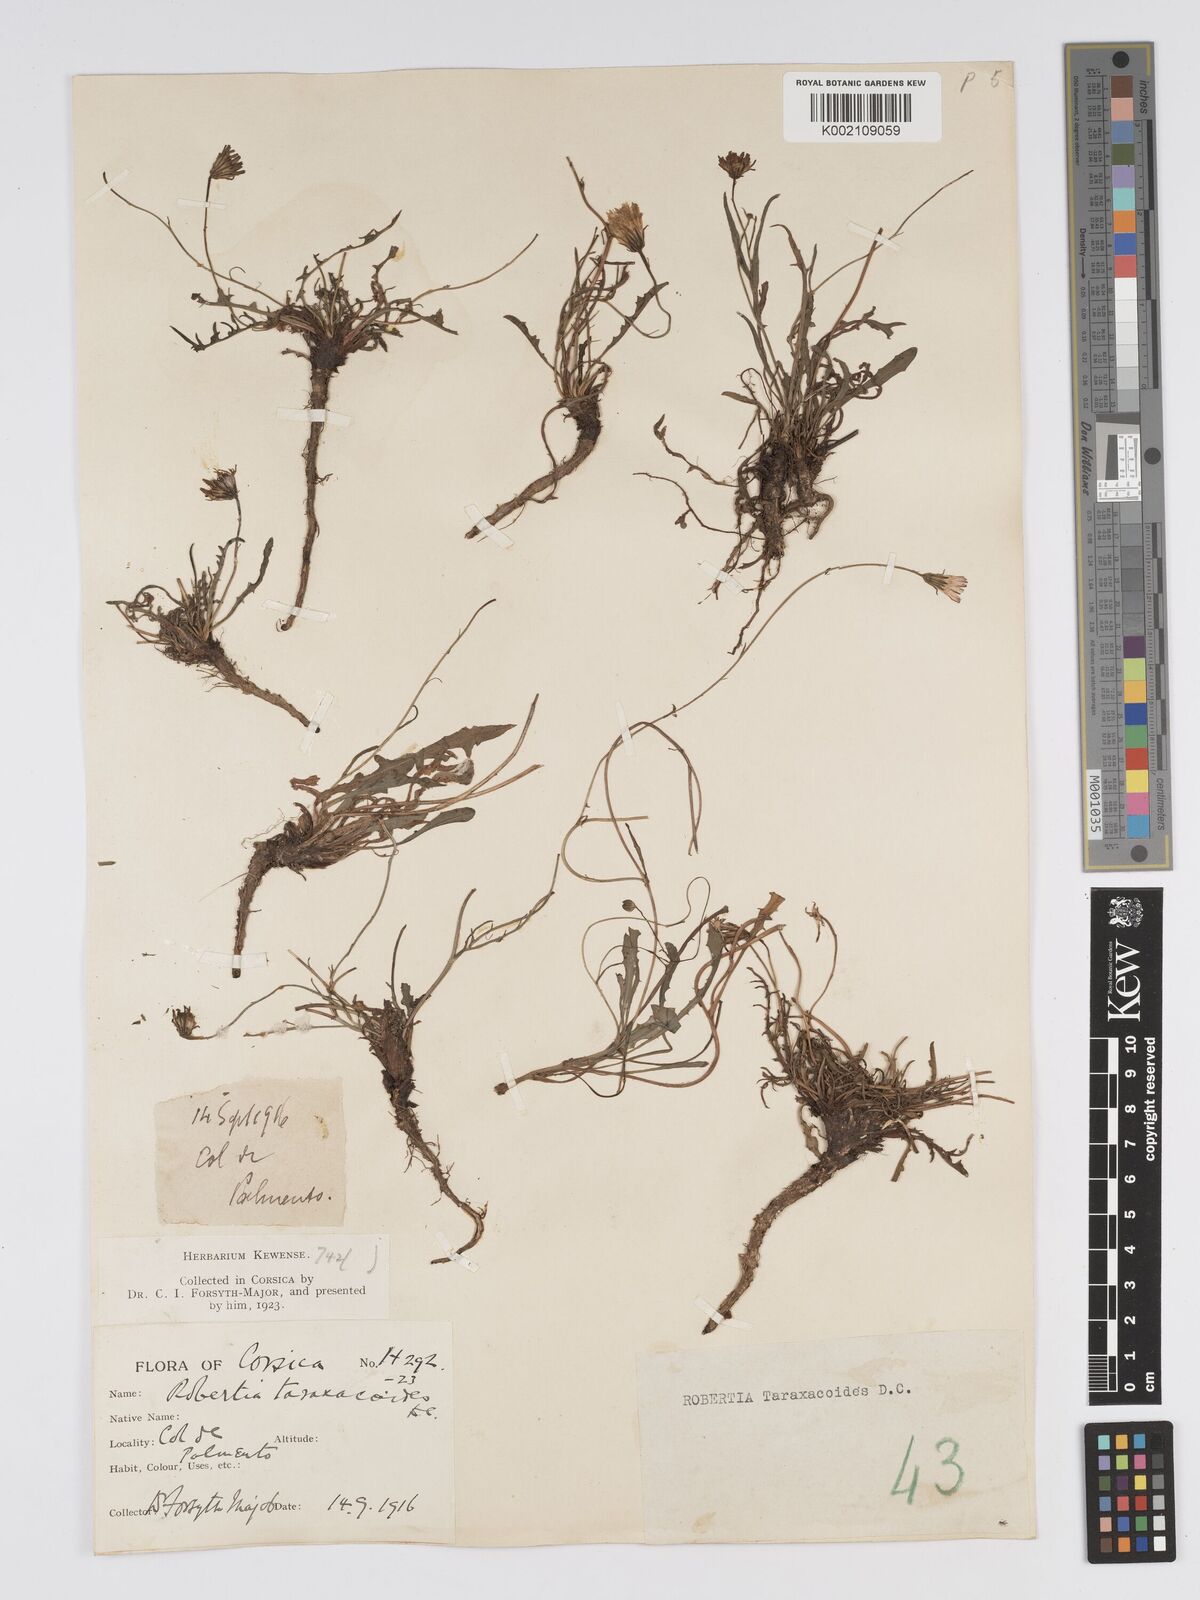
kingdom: Plantae
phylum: Tracheophyta
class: Magnoliopsida
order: Asterales
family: Asteraceae
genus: Crepis
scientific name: Crepis
